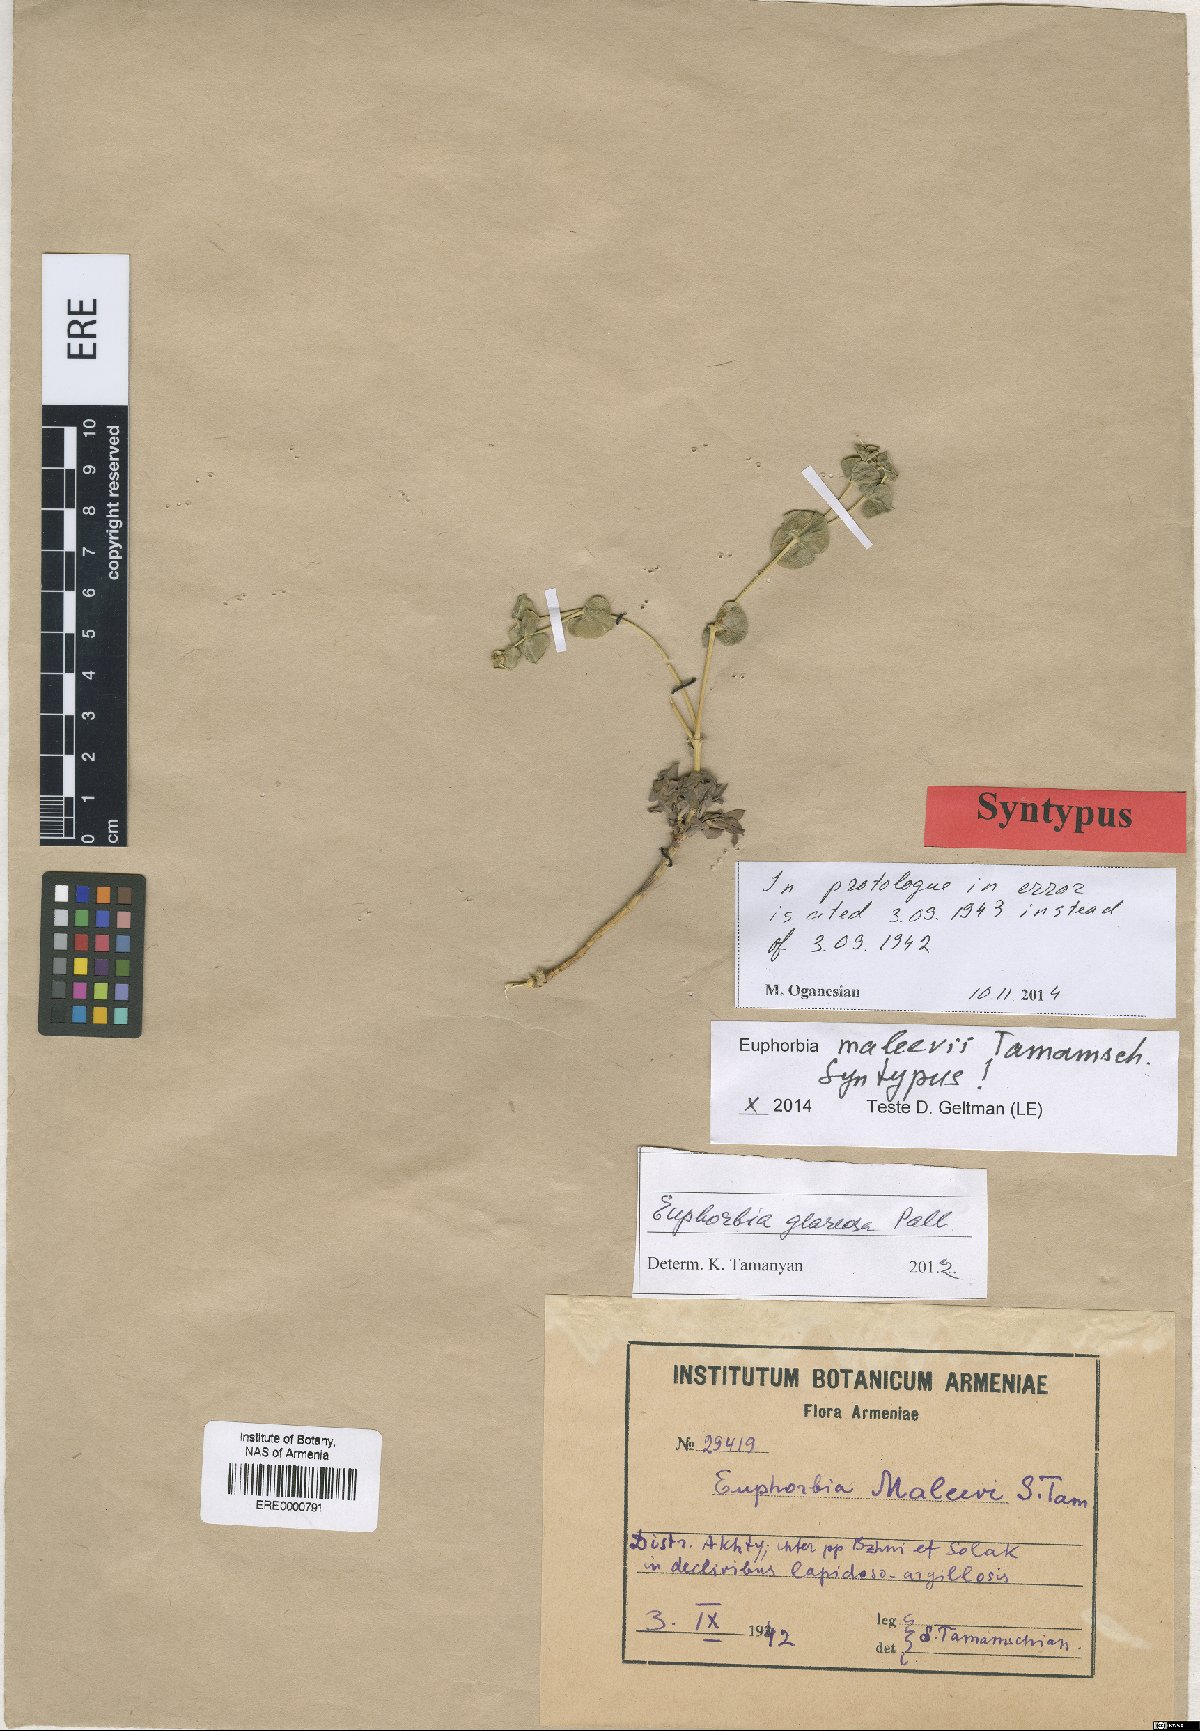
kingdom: Plantae
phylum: Tracheophyta
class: Magnoliopsida
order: Malpighiales
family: Euphorbiaceae
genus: Euphorbia
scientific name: Euphorbia glareosa
